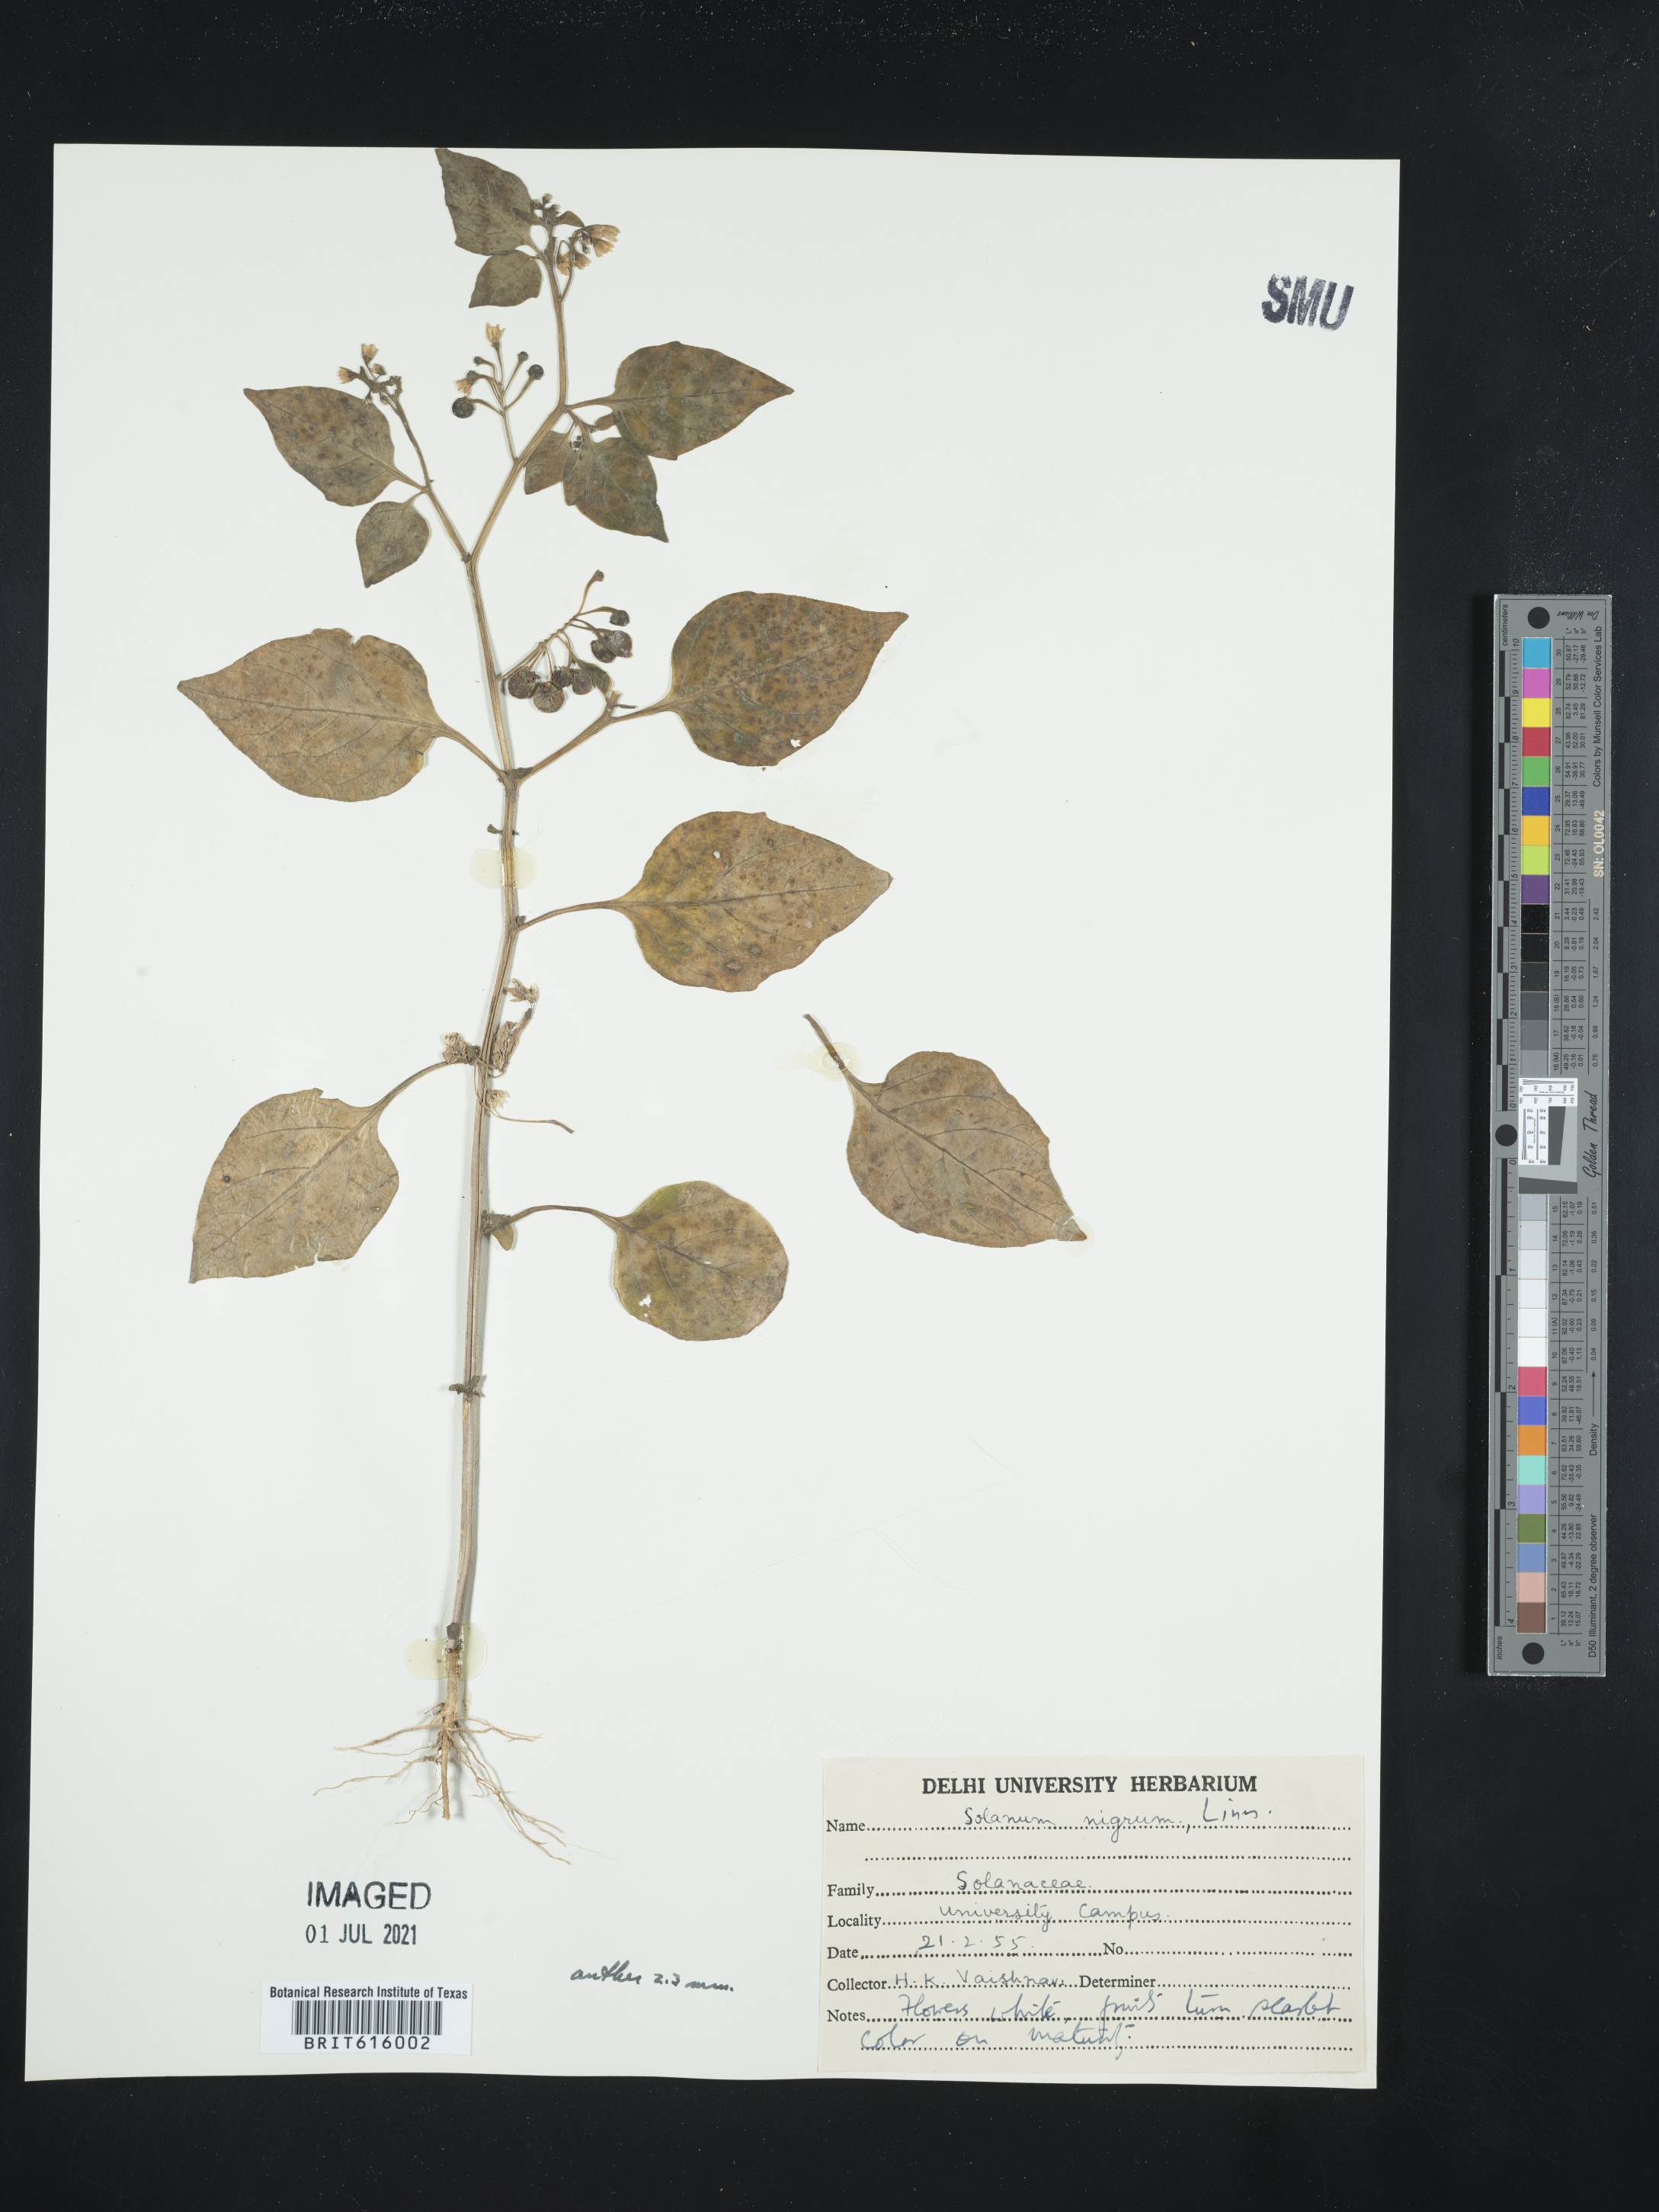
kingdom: Plantae
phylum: Tracheophyta
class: Magnoliopsida
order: Solanales
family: Solanaceae
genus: Solanum
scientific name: Solanum nigrum
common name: Black nightshade
